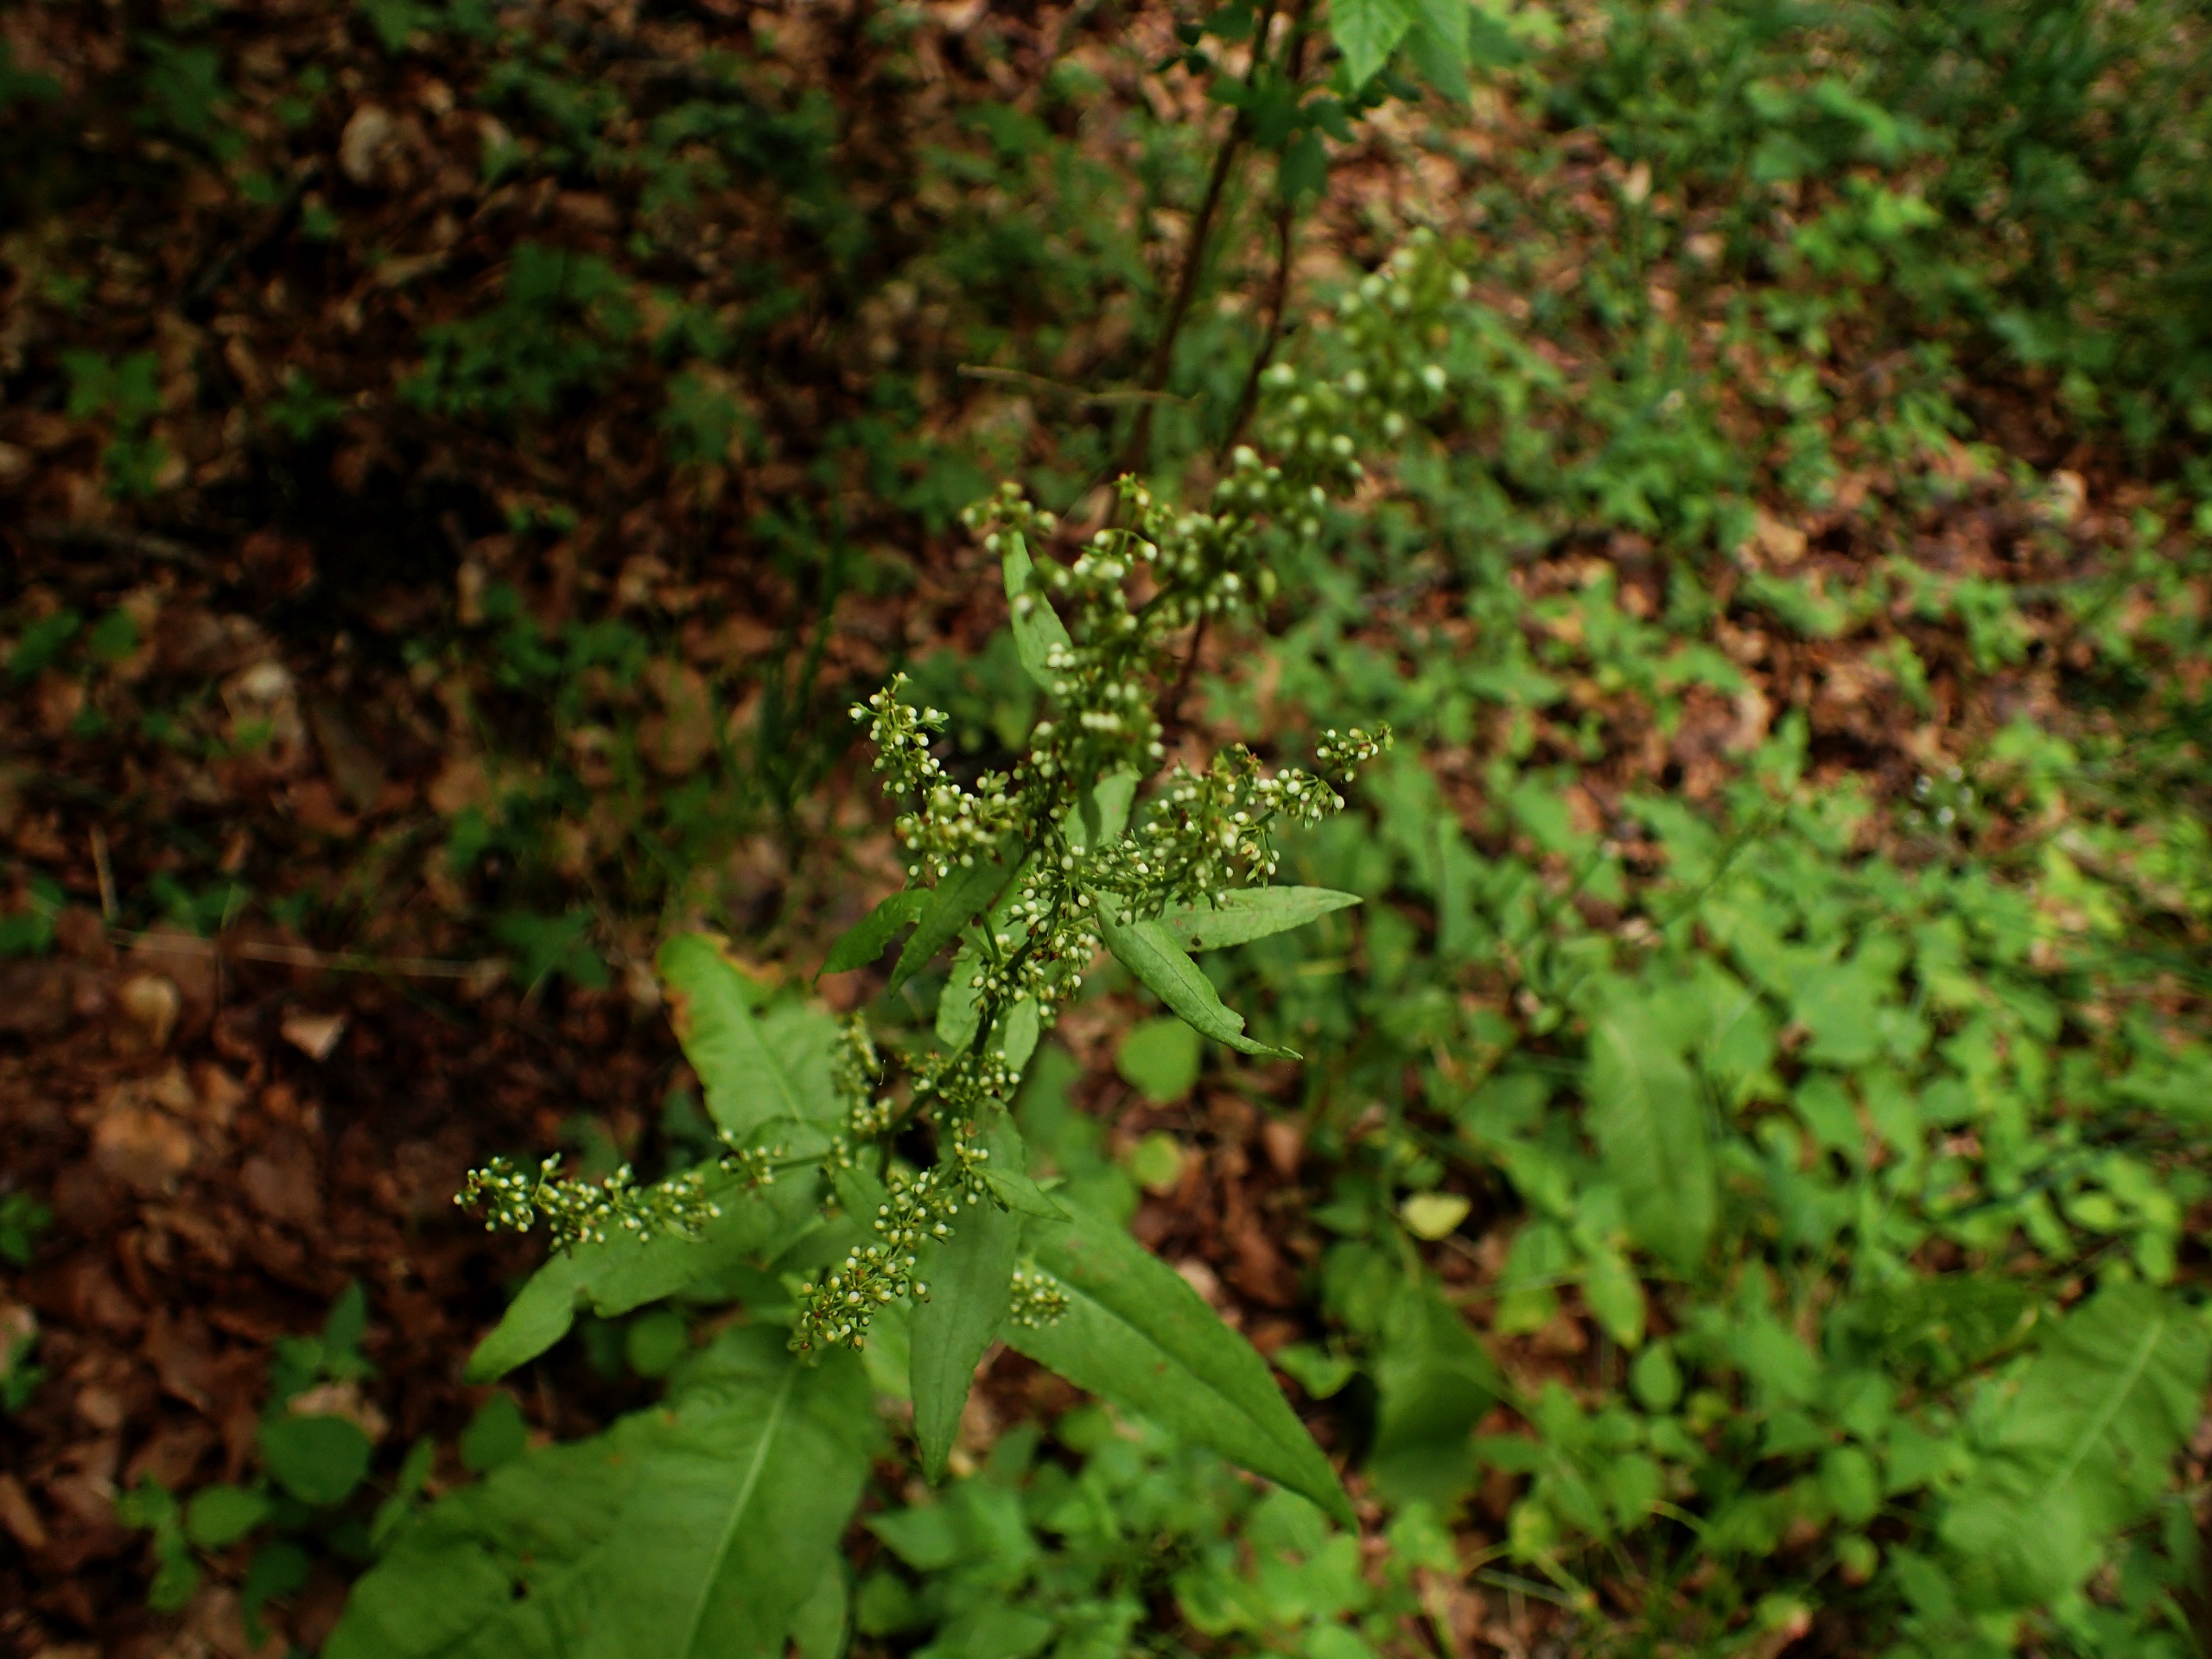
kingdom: Plantae
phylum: Tracheophyta
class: Magnoliopsida
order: Caryophyllales
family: Polygonaceae
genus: Rumex
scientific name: Rumex sanguineus
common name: Skov-skræppe
